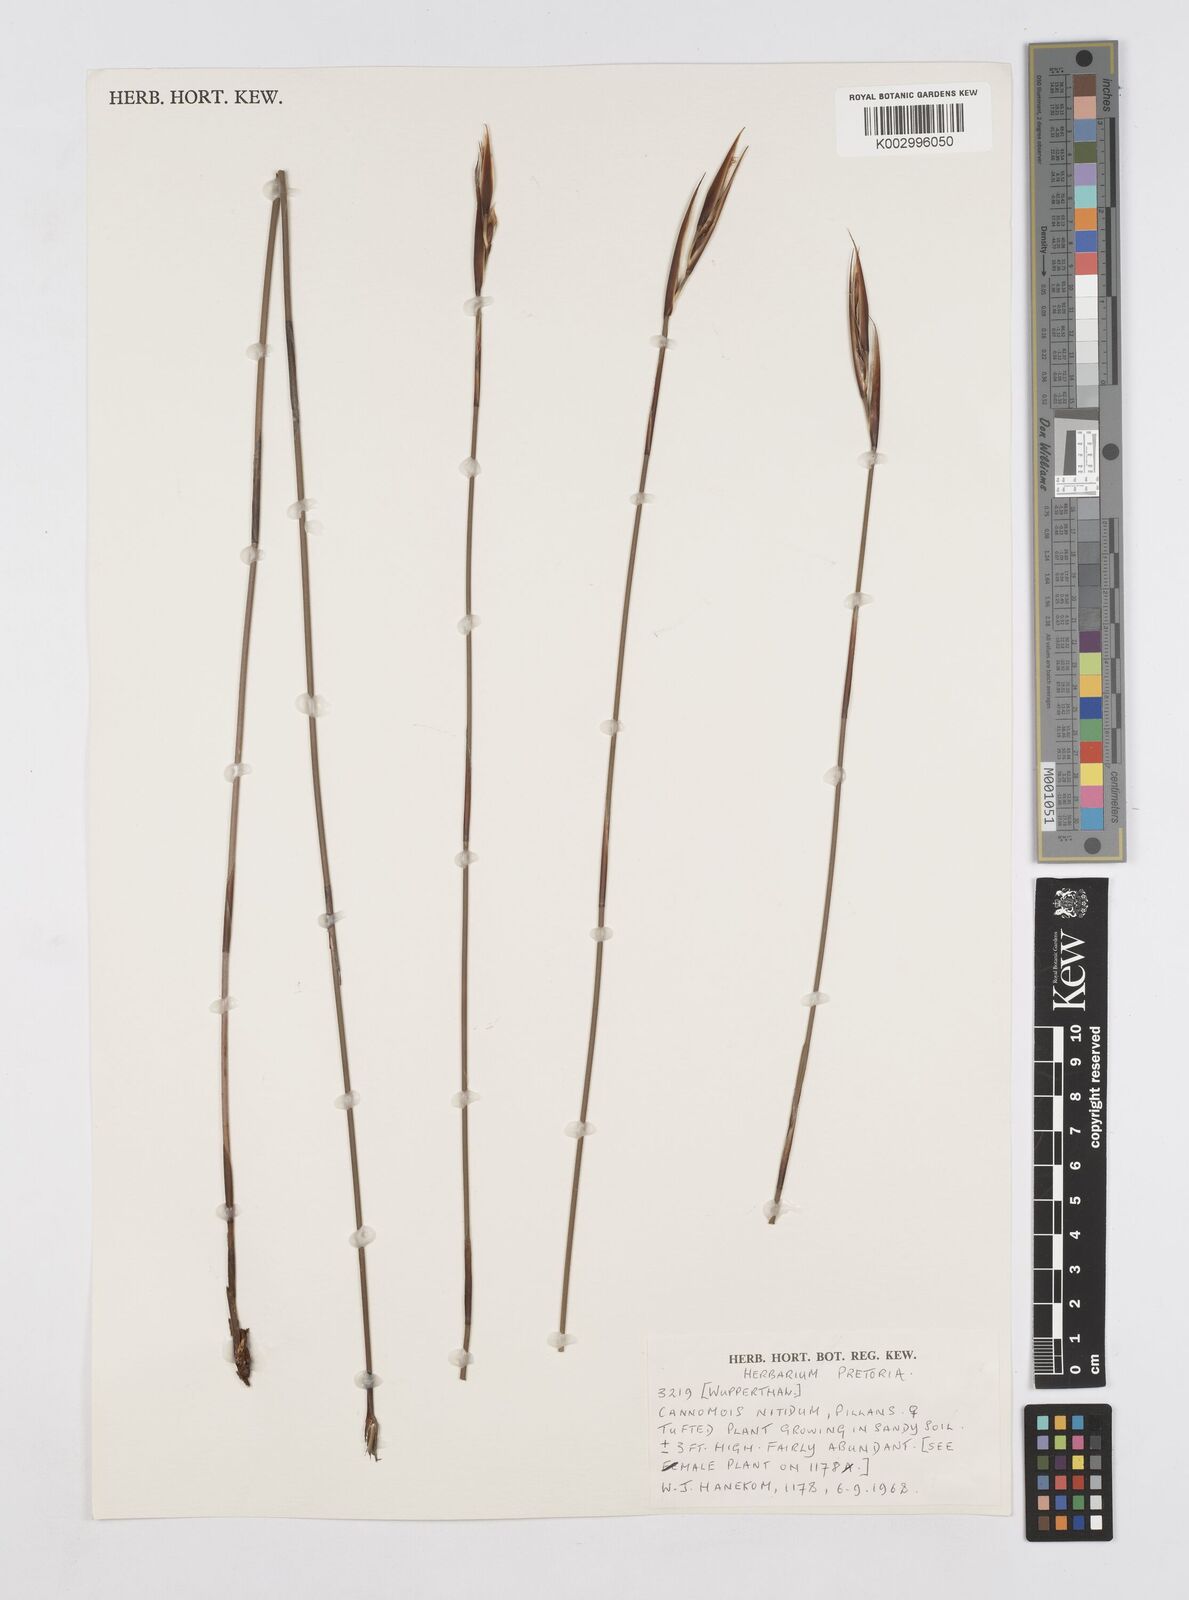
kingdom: Plantae
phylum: Tracheophyta
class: Liliopsida
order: Poales
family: Restionaceae
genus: Cannomois
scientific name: Cannomois parviflora
